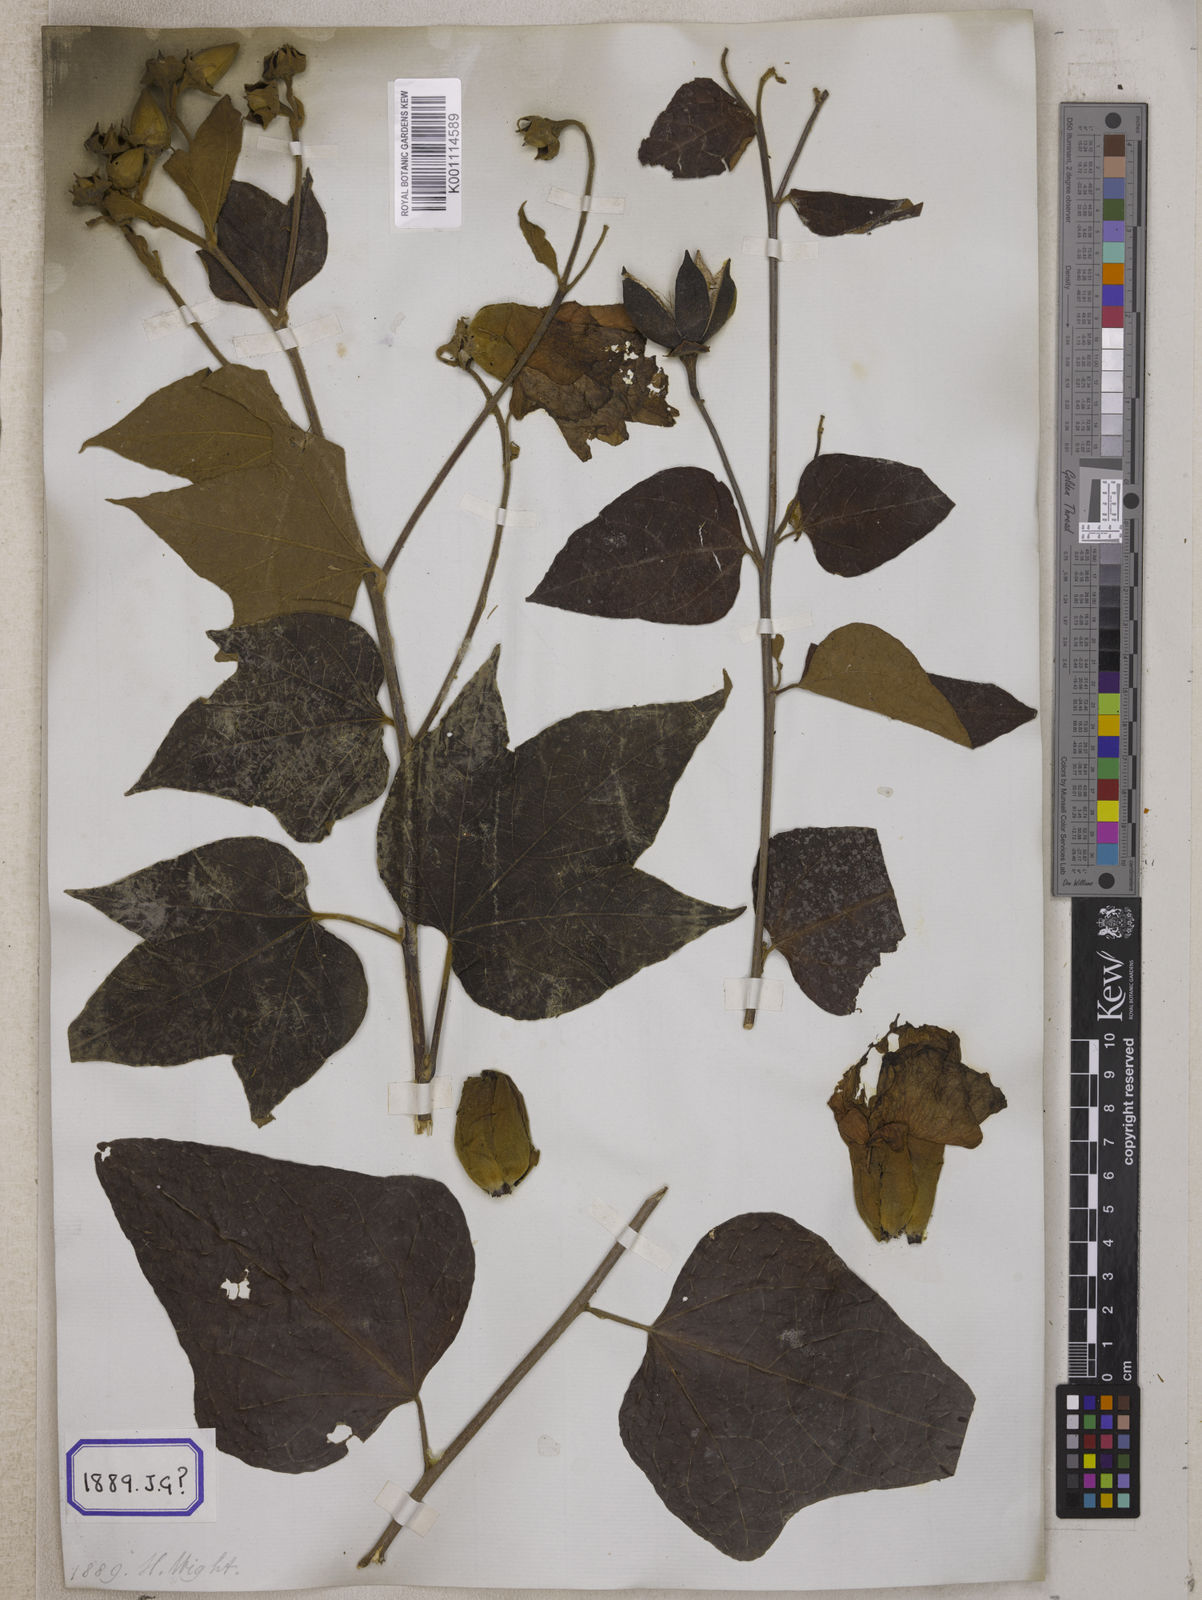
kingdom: Plantae
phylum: Tracheophyta
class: Magnoliopsida
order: Malvales
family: Malvaceae
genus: Thespesia
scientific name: Thespesia lampas
